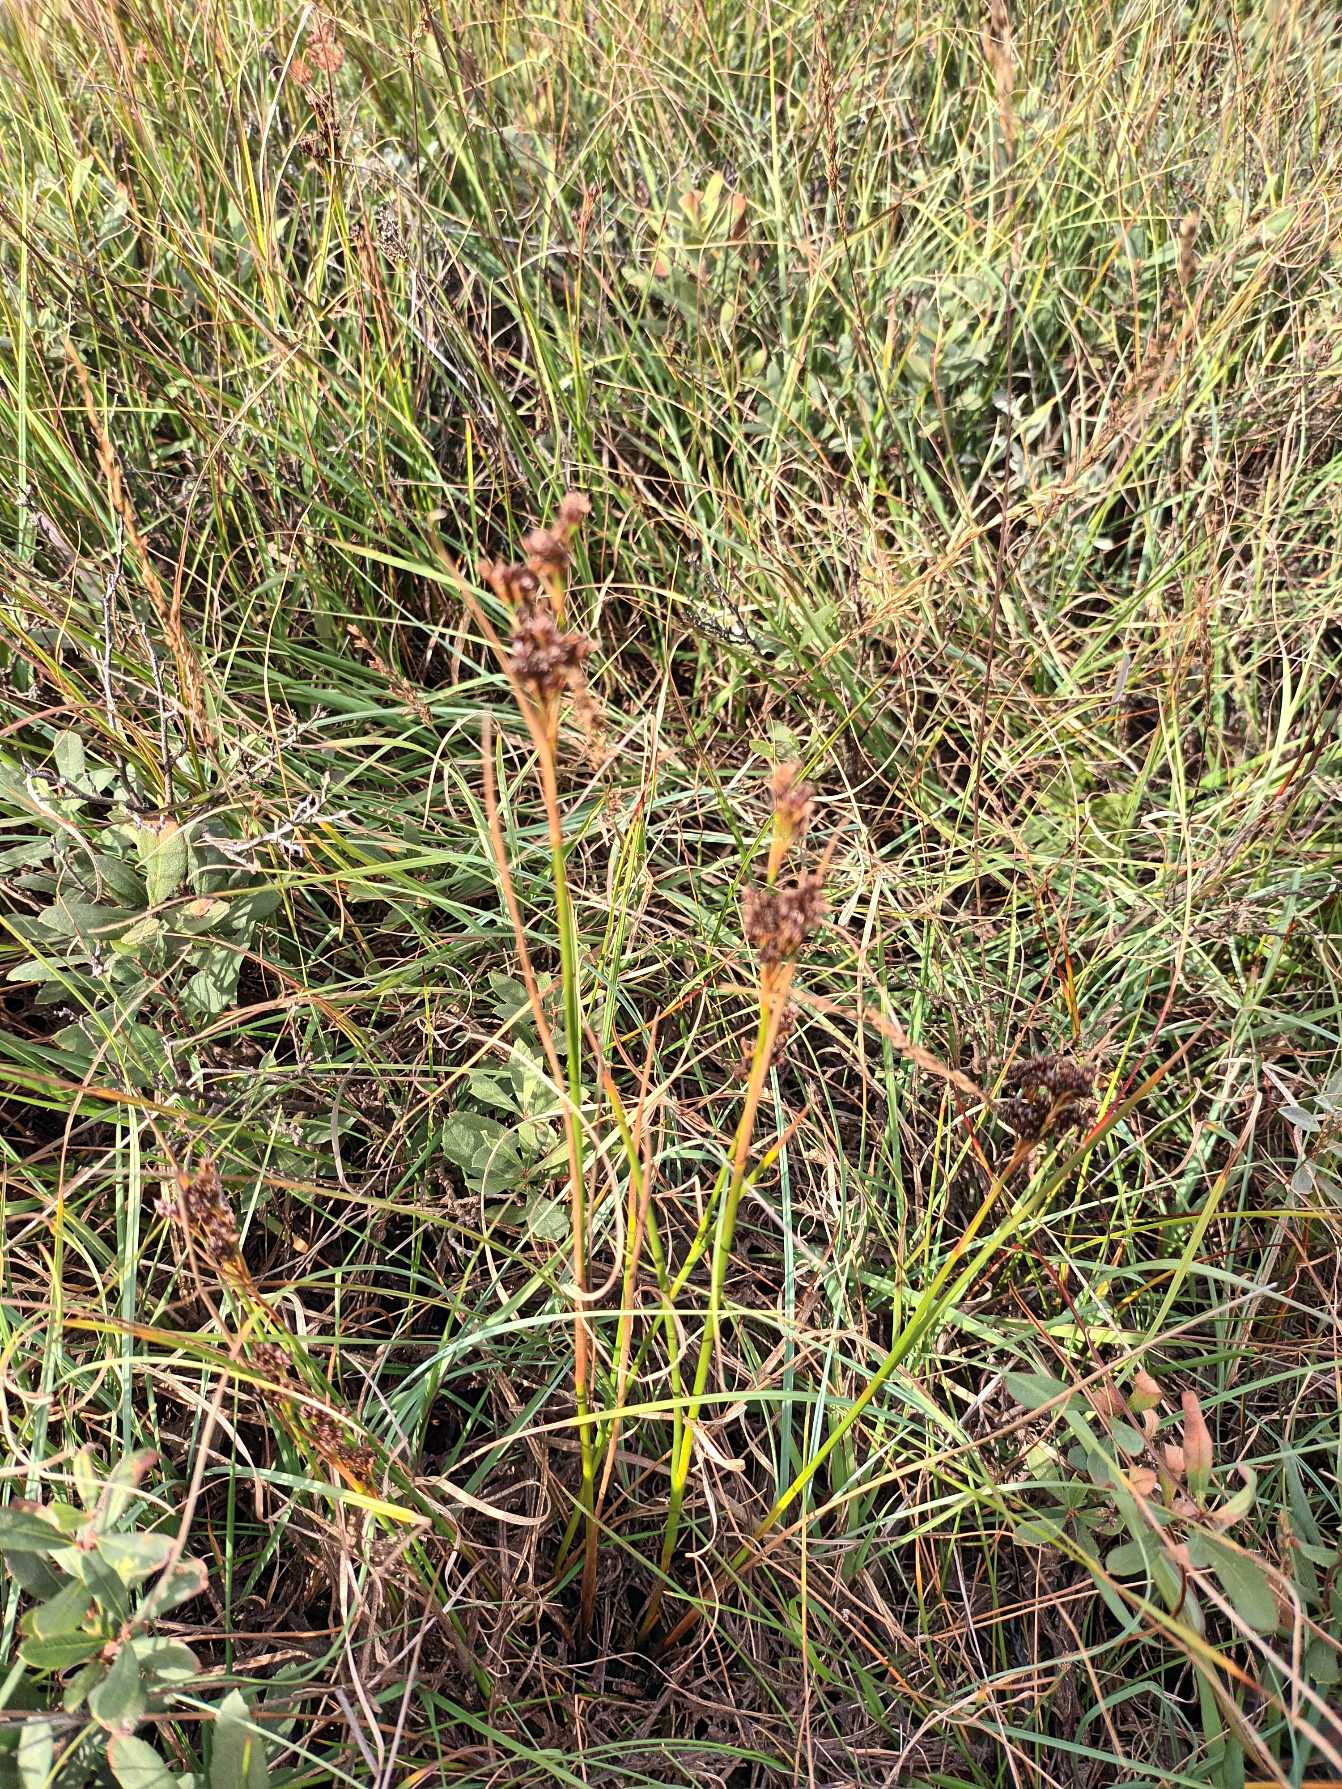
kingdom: Plantae
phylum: Tracheophyta
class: Liliopsida
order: Poales
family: Juncaceae
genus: Juncus
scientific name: Juncus anceps
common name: Sand-siv
